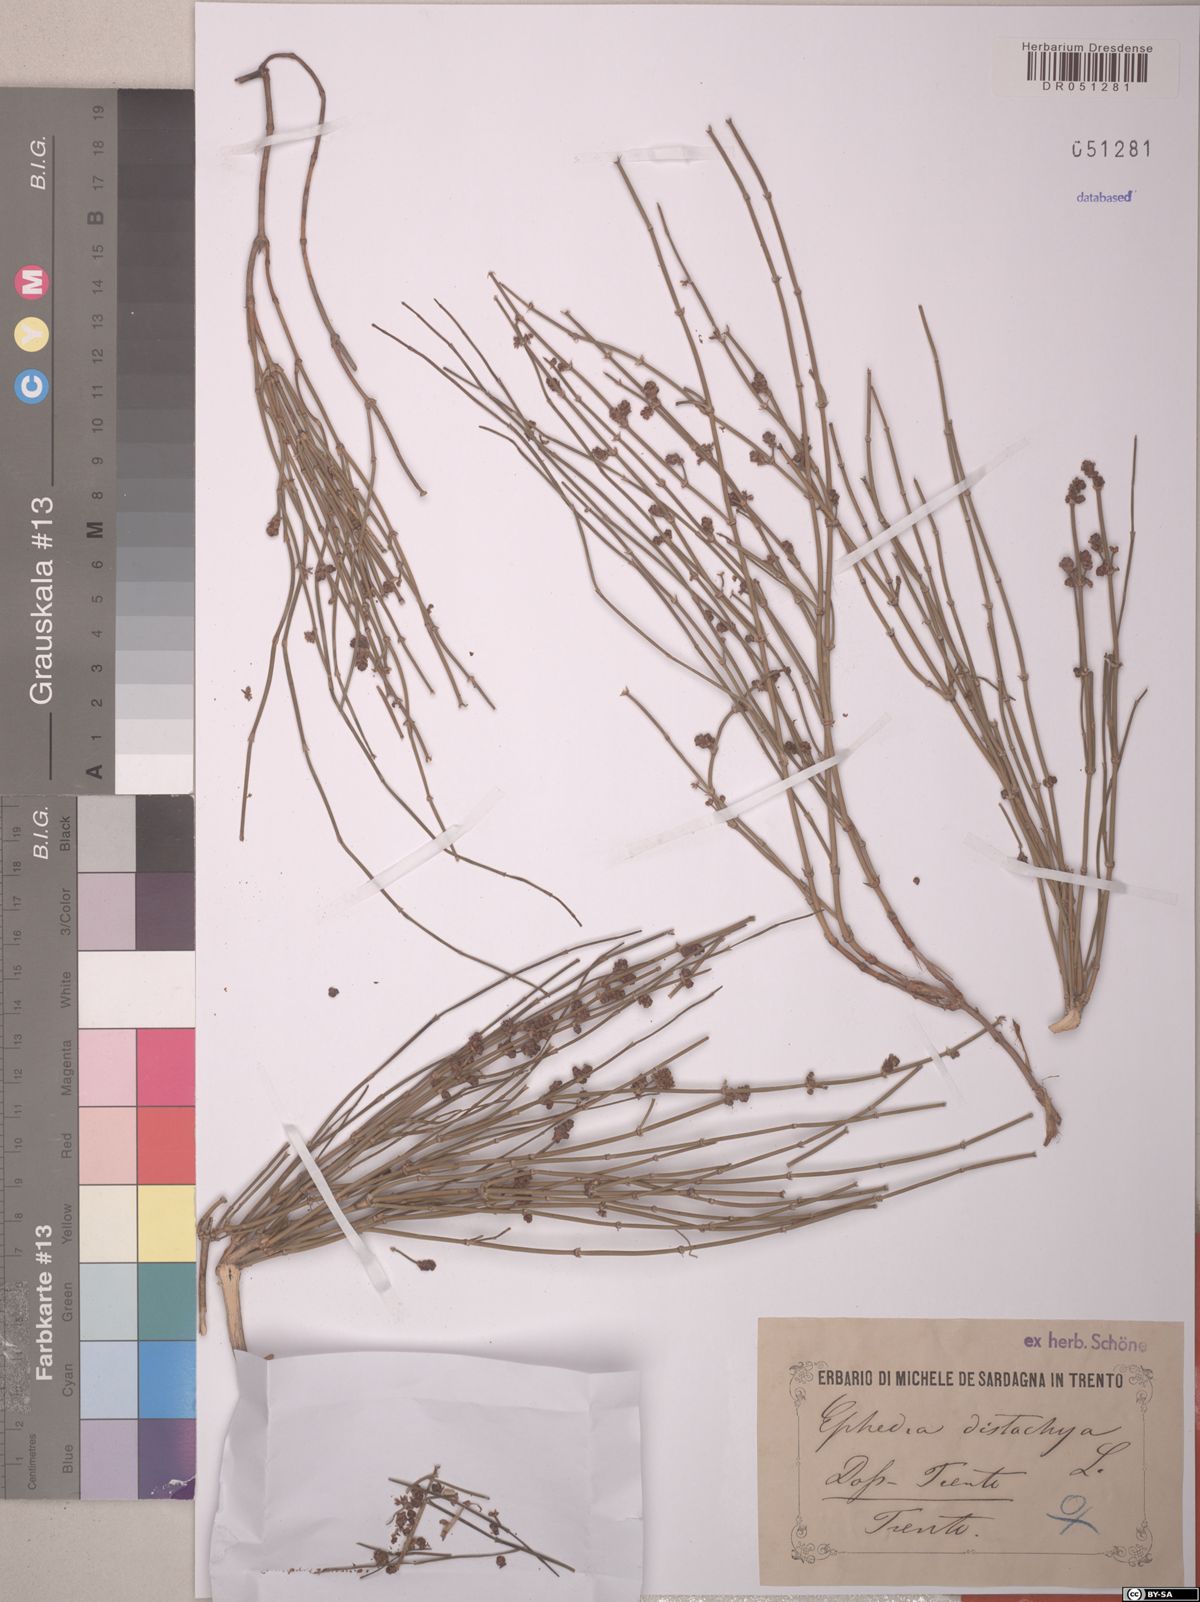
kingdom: Plantae
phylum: Tracheophyta
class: Gnetopsida
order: Ephedrales
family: Ephedraceae
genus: Ephedra
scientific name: Ephedra distachya
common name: Sea grape
